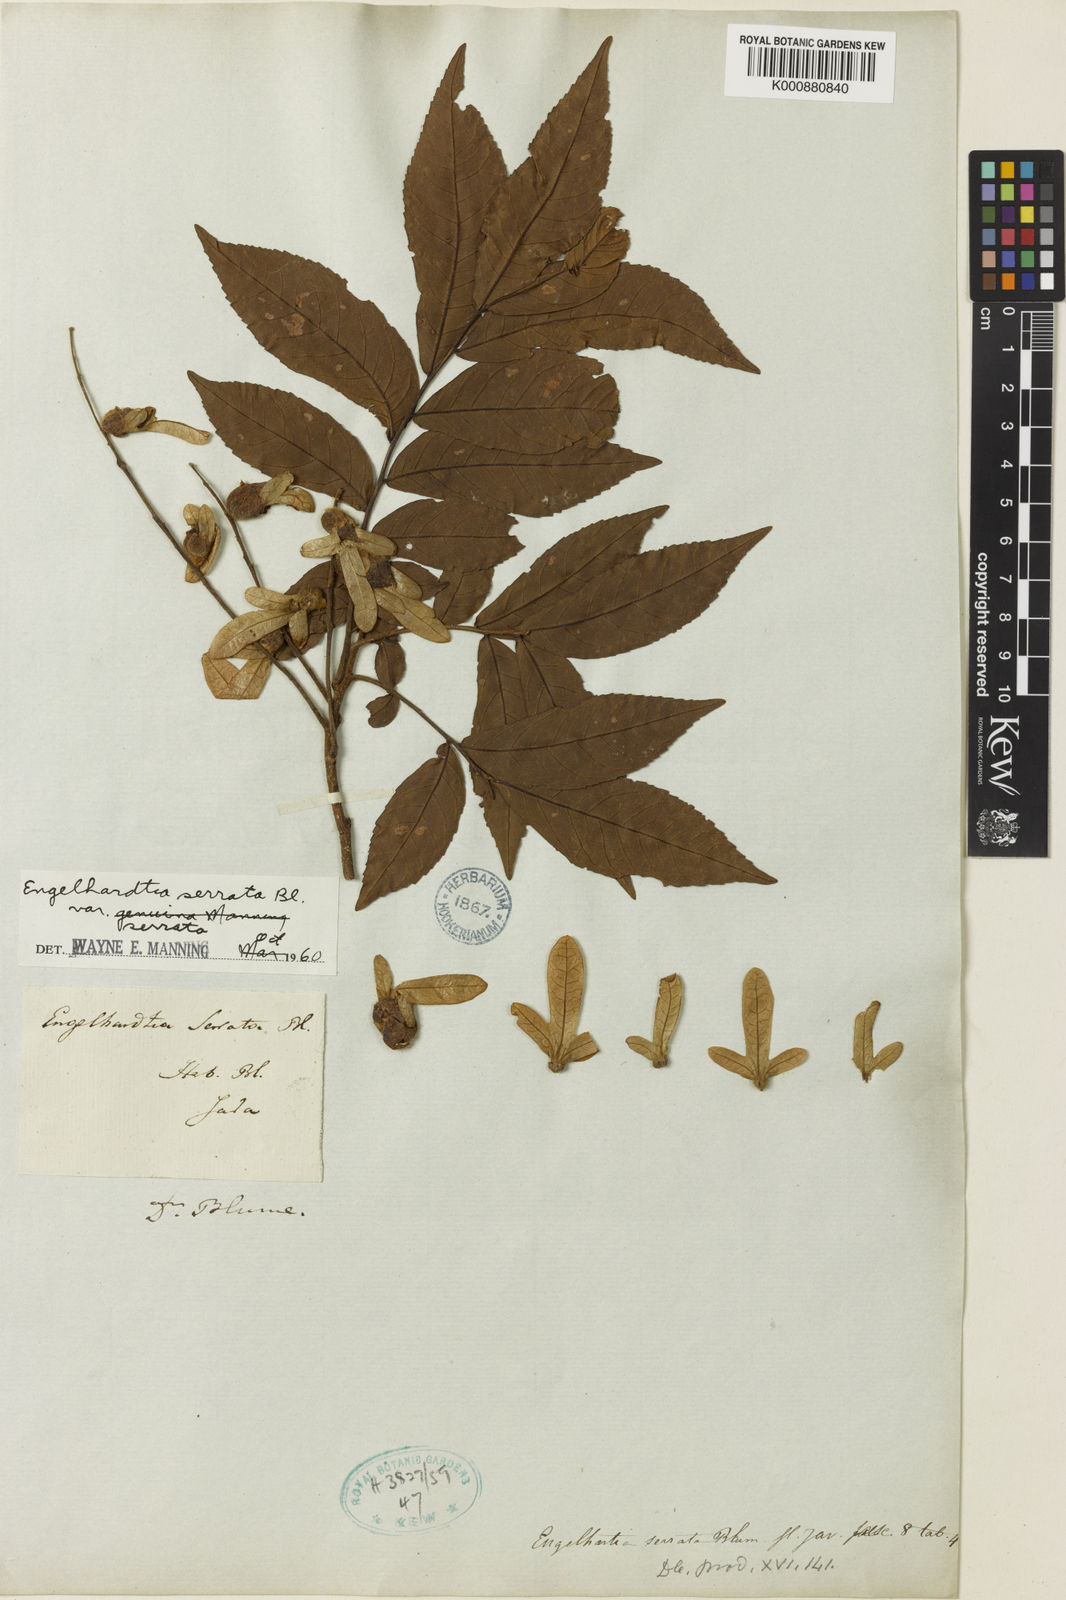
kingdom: Plantae
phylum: Tracheophyta
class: Magnoliopsida
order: Fagales
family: Juglandaceae
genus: Engelhardia
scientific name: Engelhardia serrata
